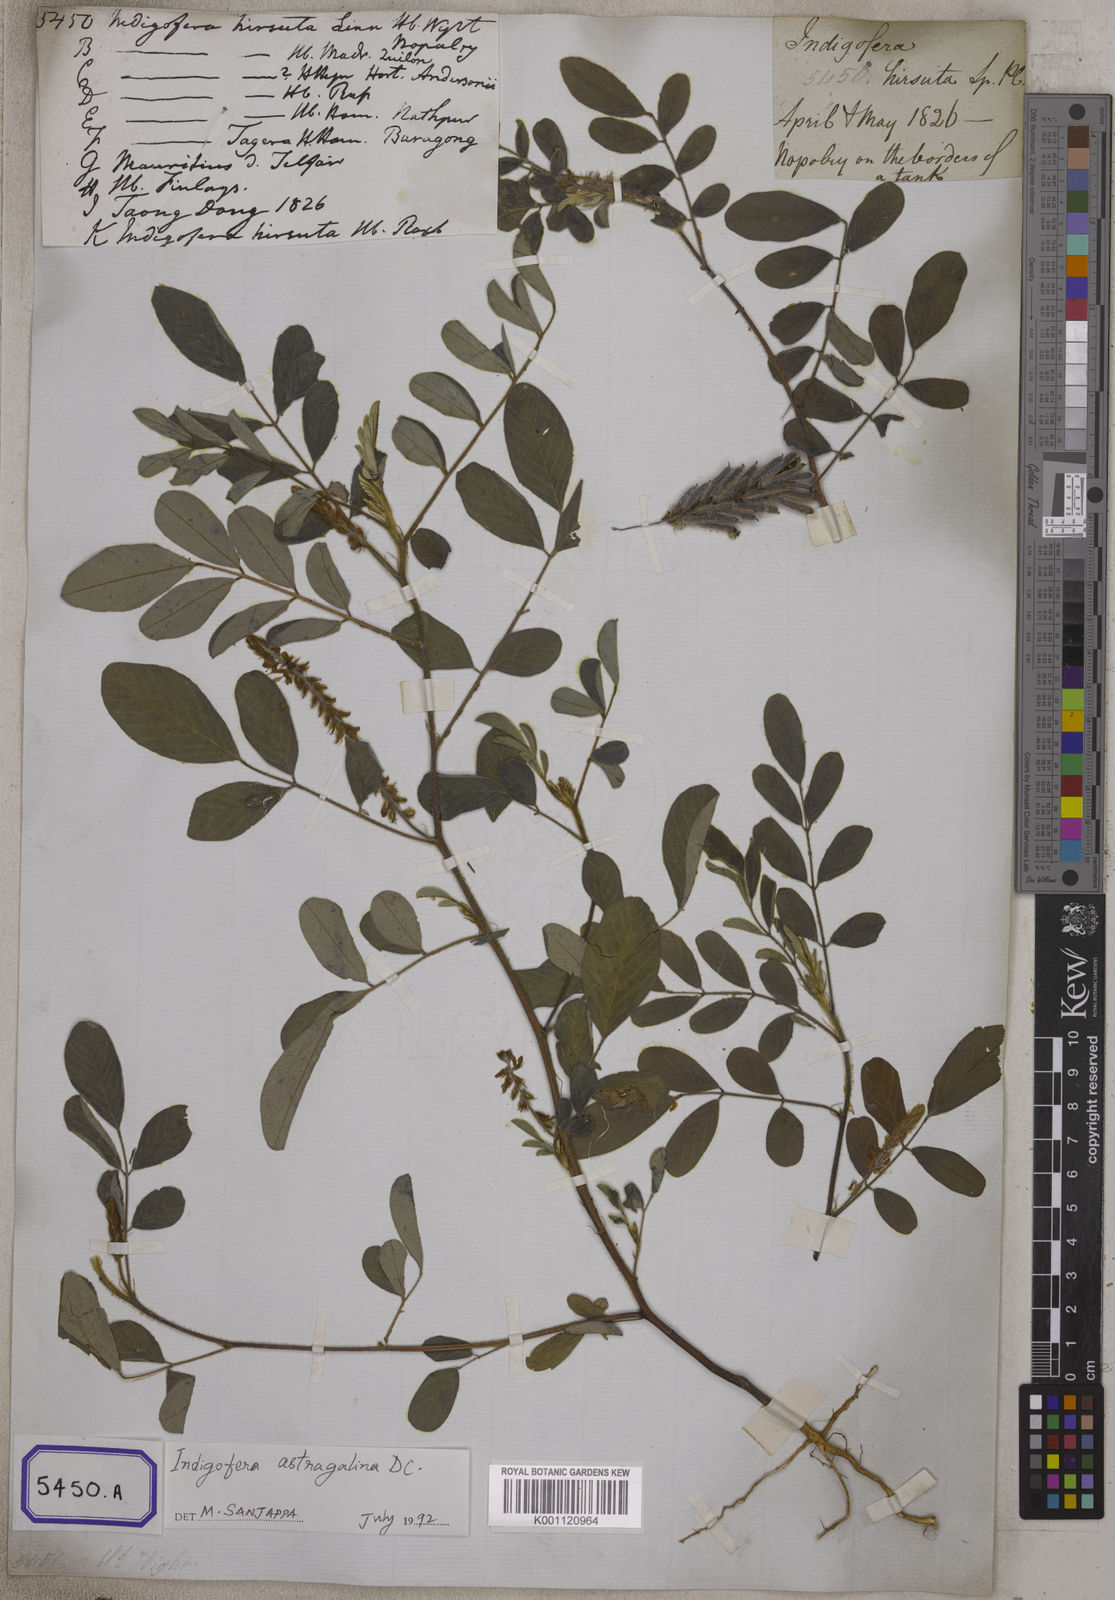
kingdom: Plantae
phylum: Tracheophyta
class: Magnoliopsida
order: Fabales
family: Fabaceae
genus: Indigofera
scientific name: Indigofera hirsuta
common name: Hairy indigo
